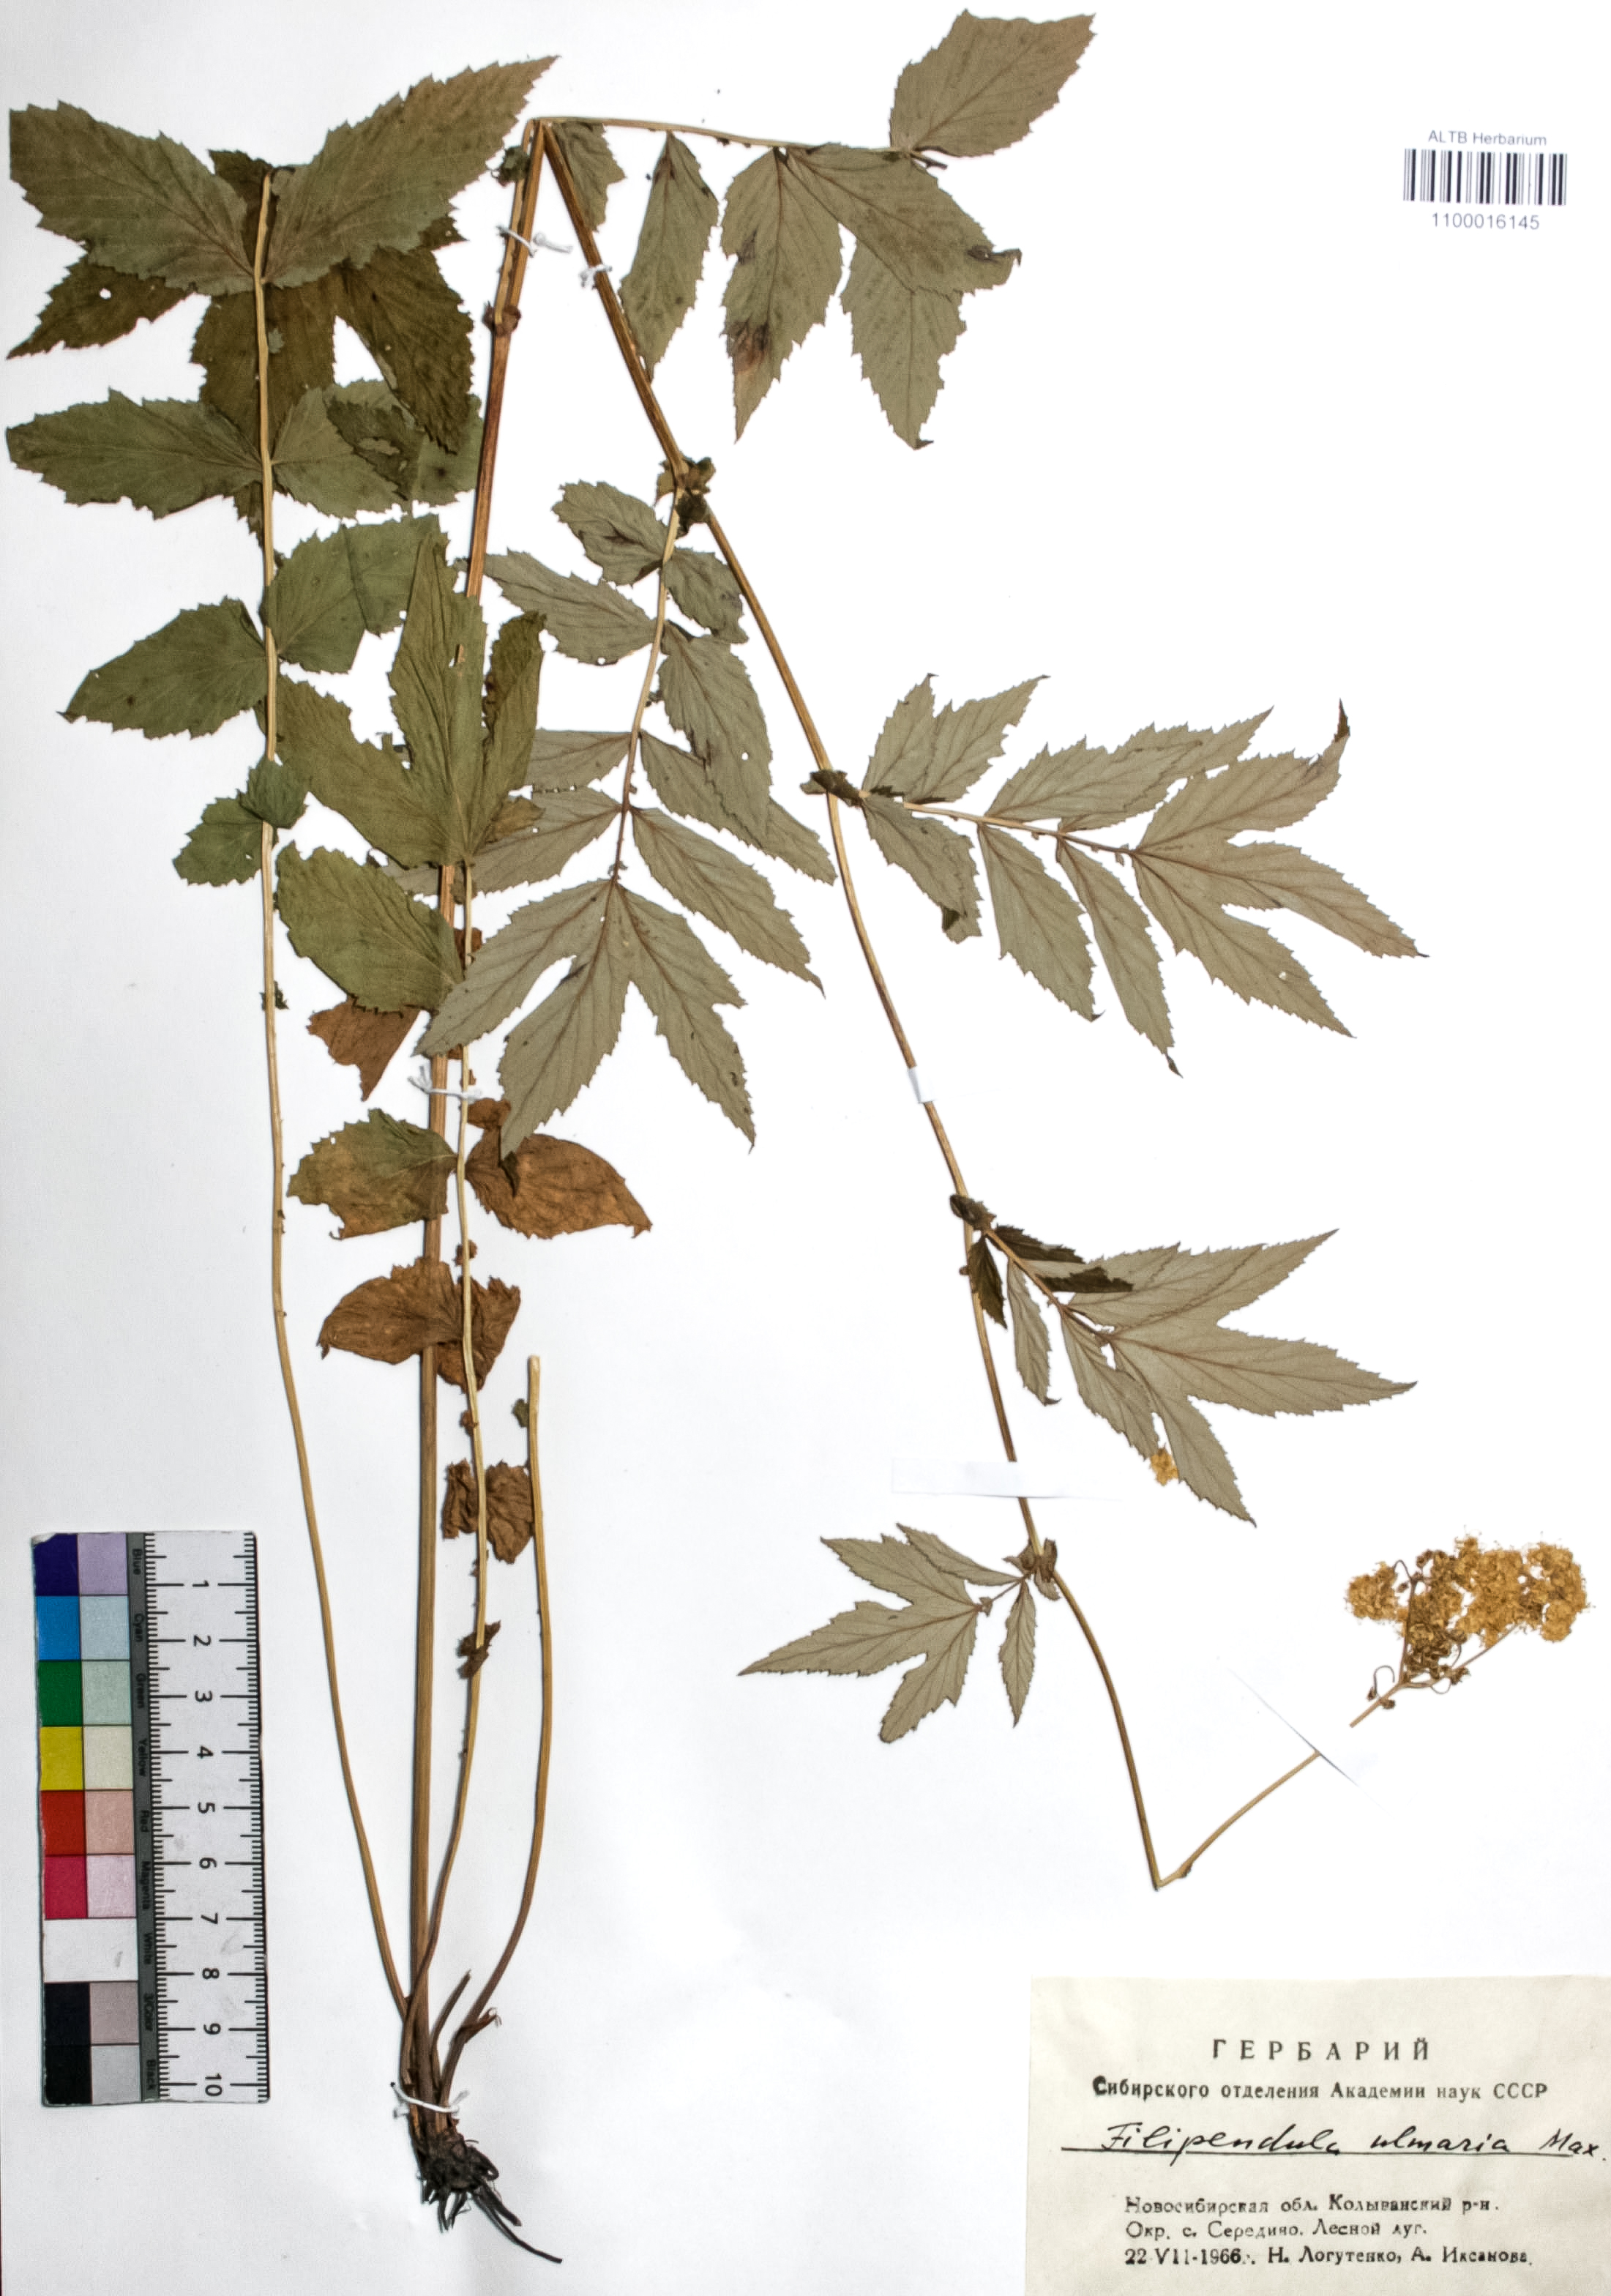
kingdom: Plantae
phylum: Tracheophyta
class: Magnoliopsida
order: Rosales
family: Rosaceae
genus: Filipendula
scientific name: Filipendula ulmaria
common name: Meadowsweet
